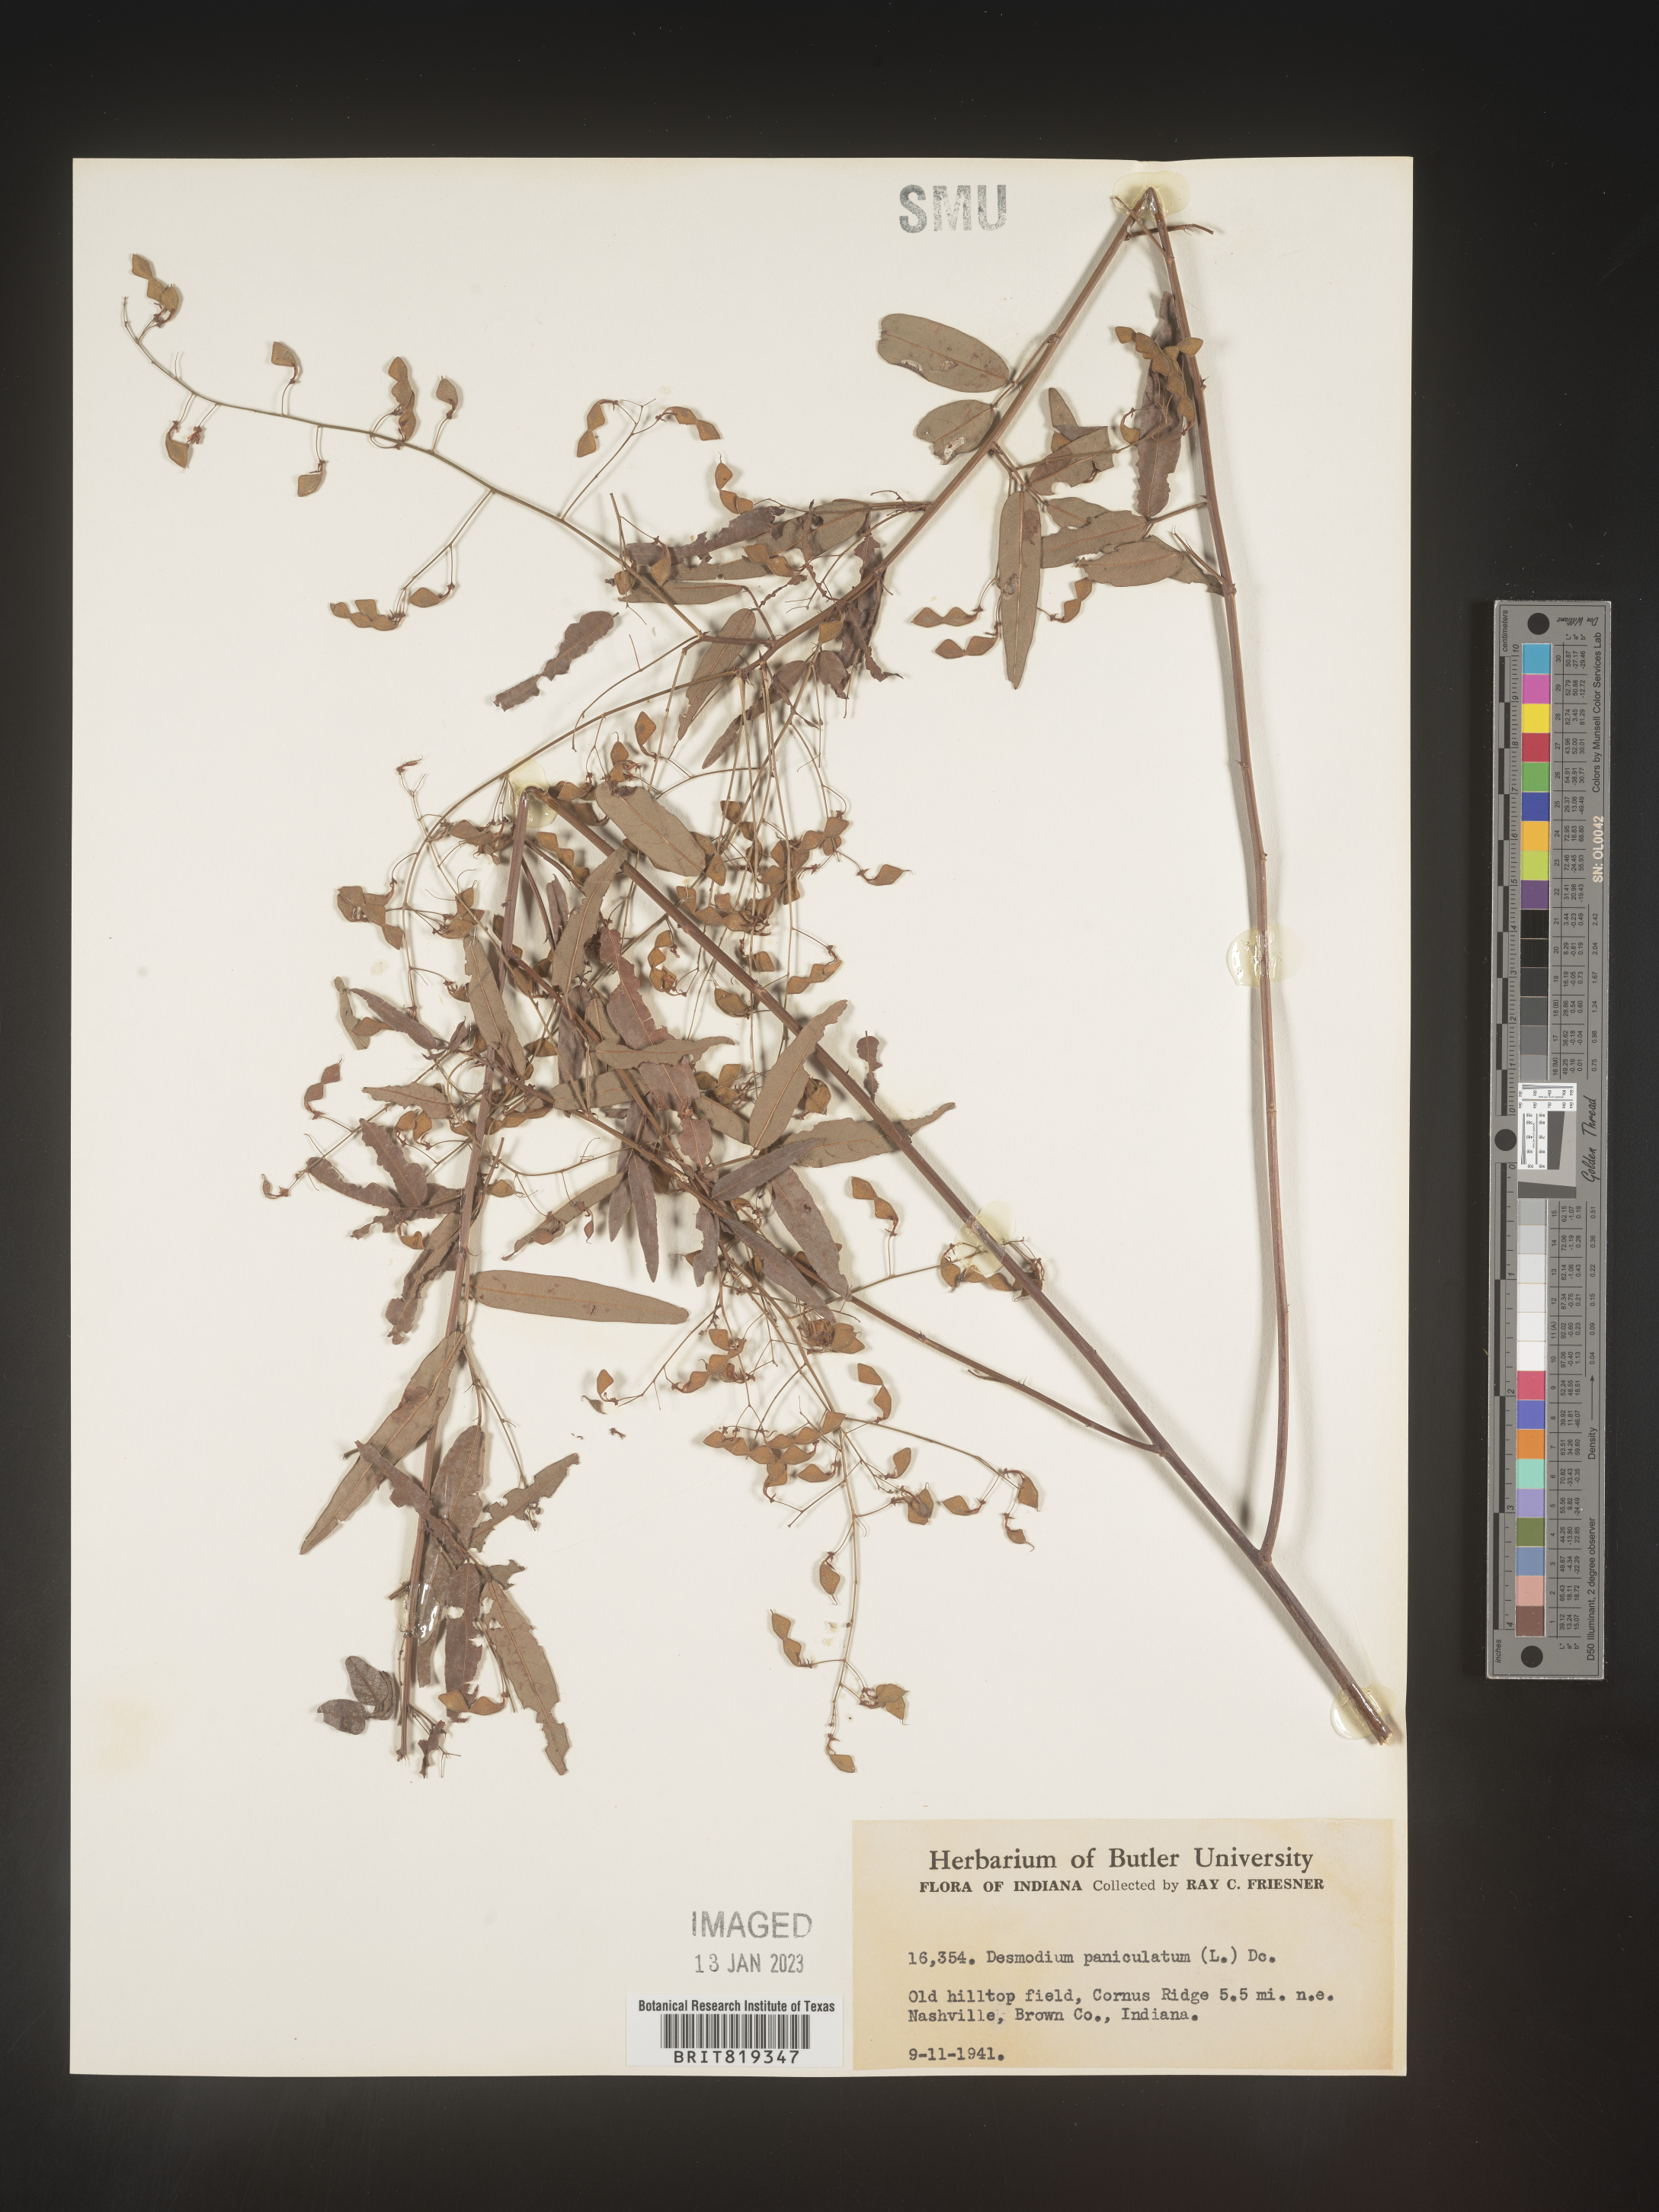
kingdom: Plantae
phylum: Tracheophyta
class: Magnoliopsida
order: Fabales
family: Fabaceae
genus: Desmodium
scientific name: Desmodium paniculatum
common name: Panicled tick-clover
